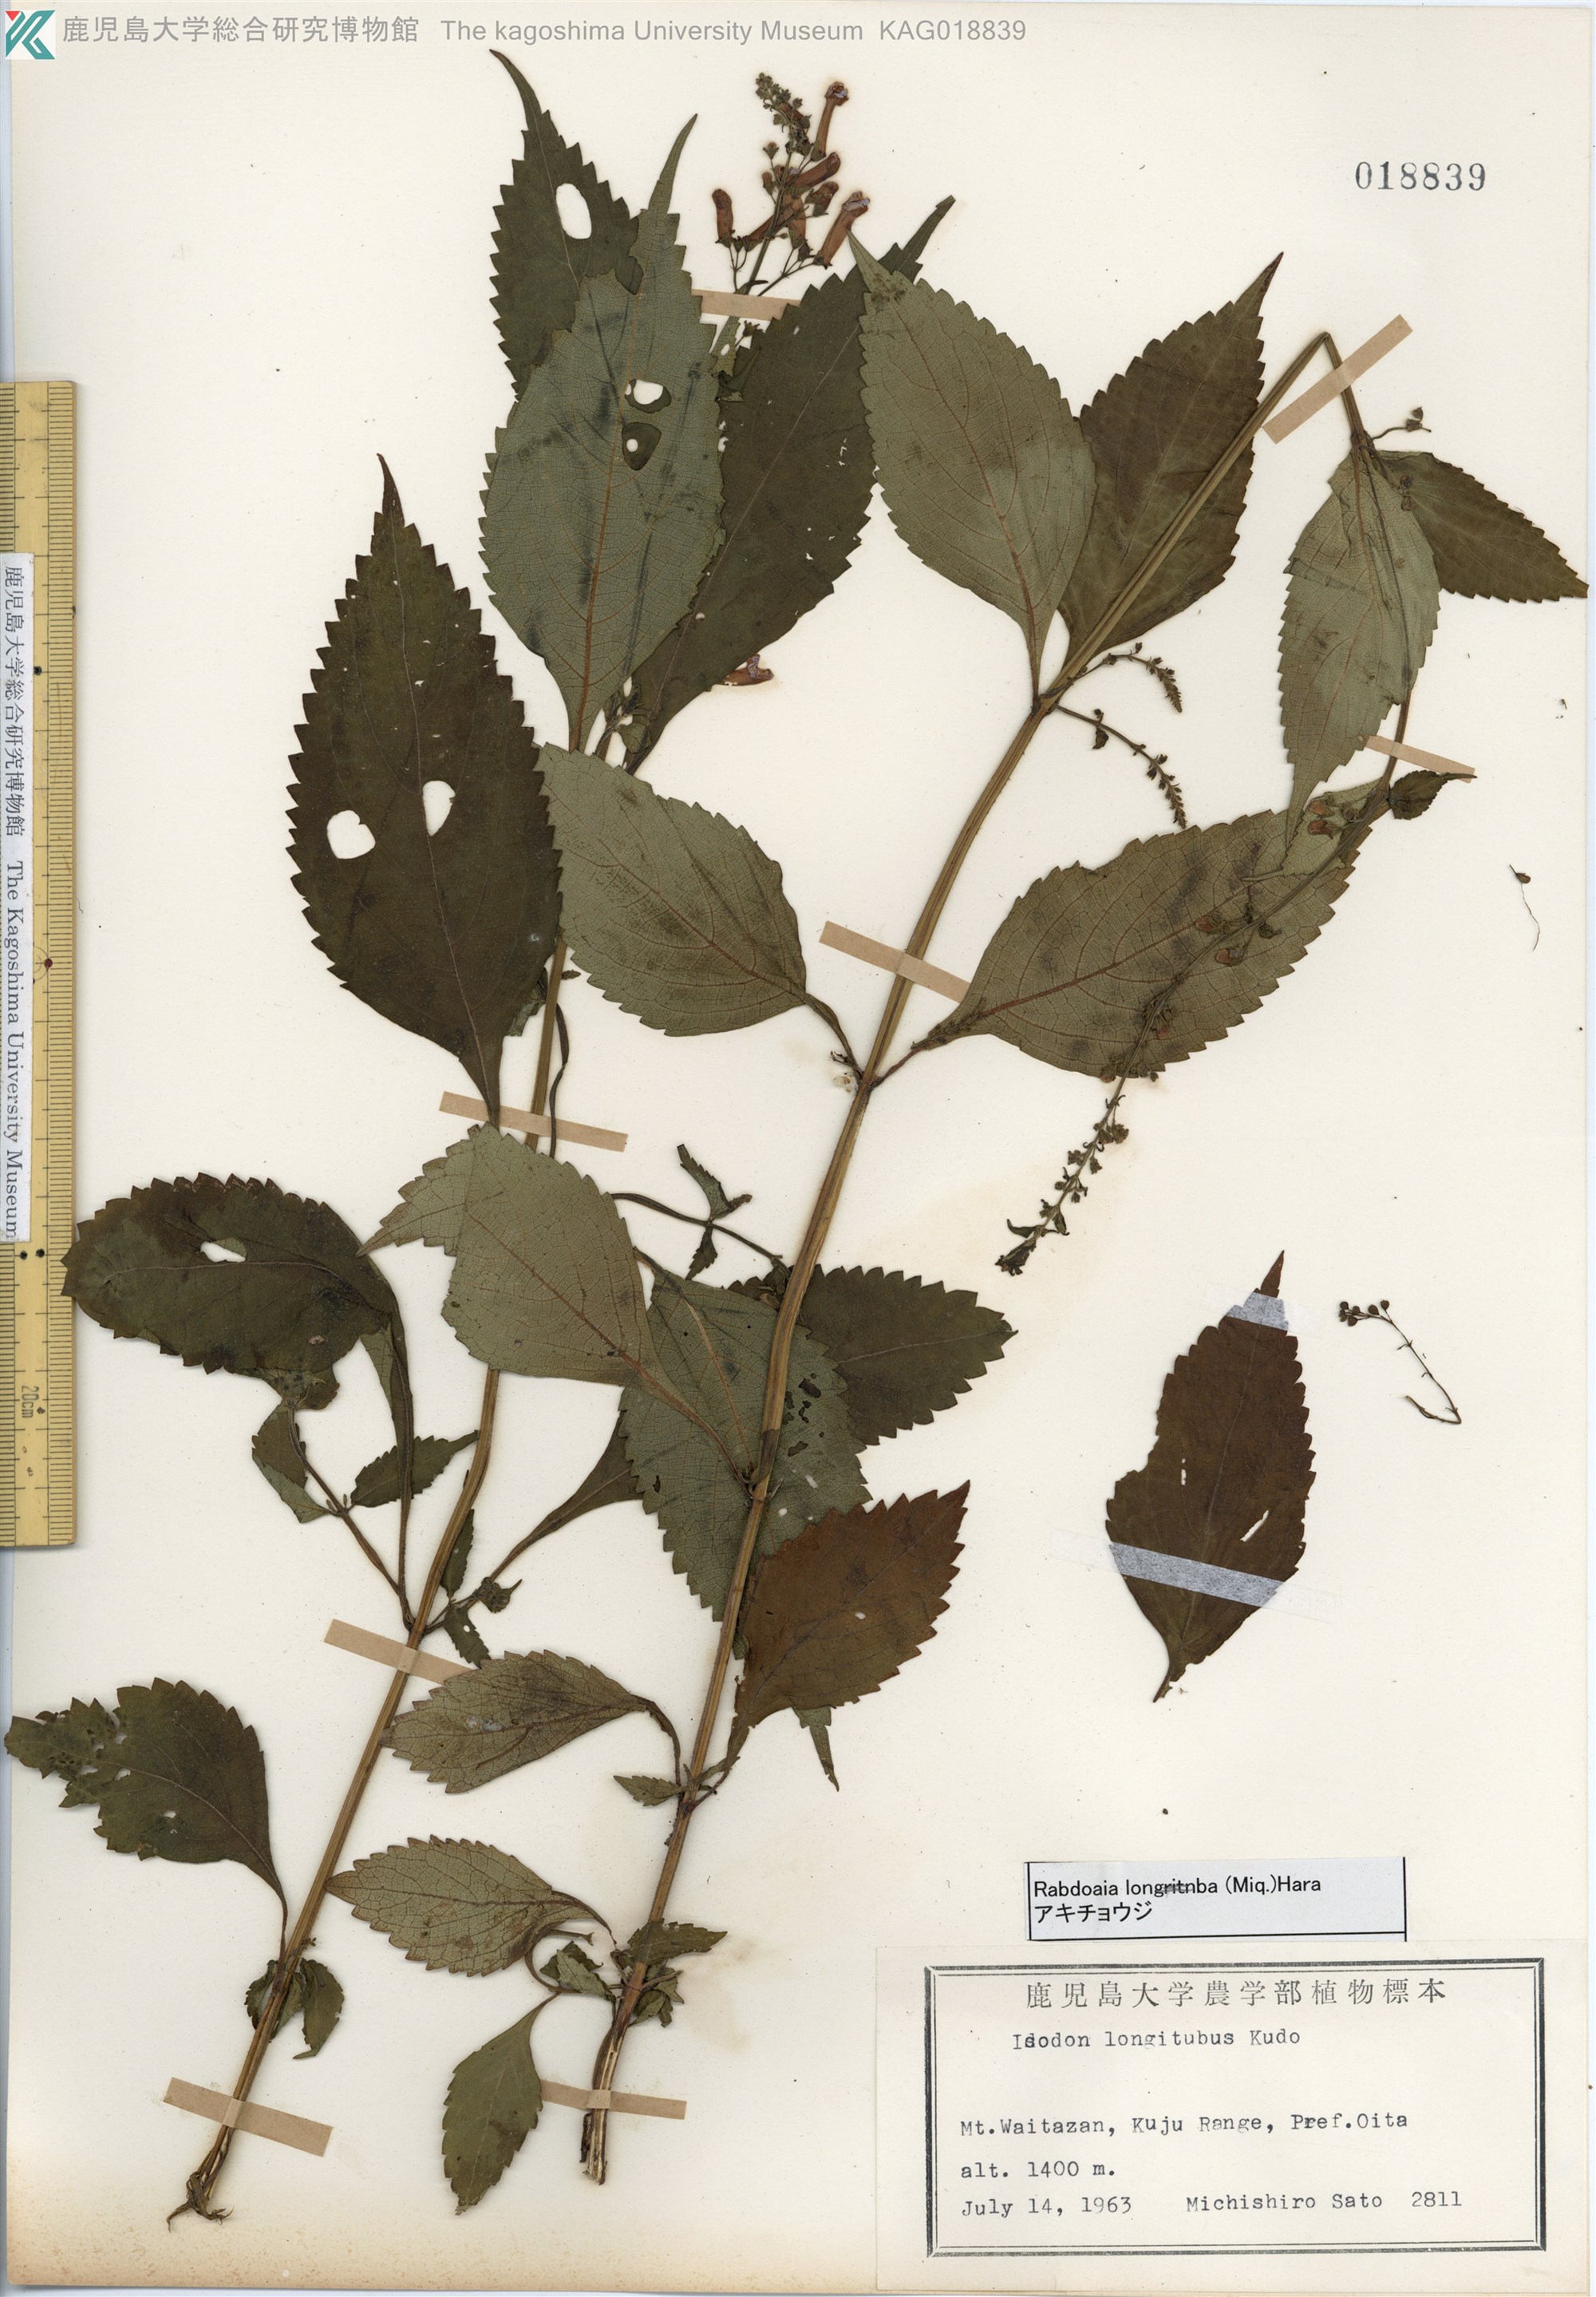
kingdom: Plantae
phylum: Tracheophyta
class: Magnoliopsida
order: Lamiales
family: Lamiaceae
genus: Isodon
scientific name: Isodon longitubus
